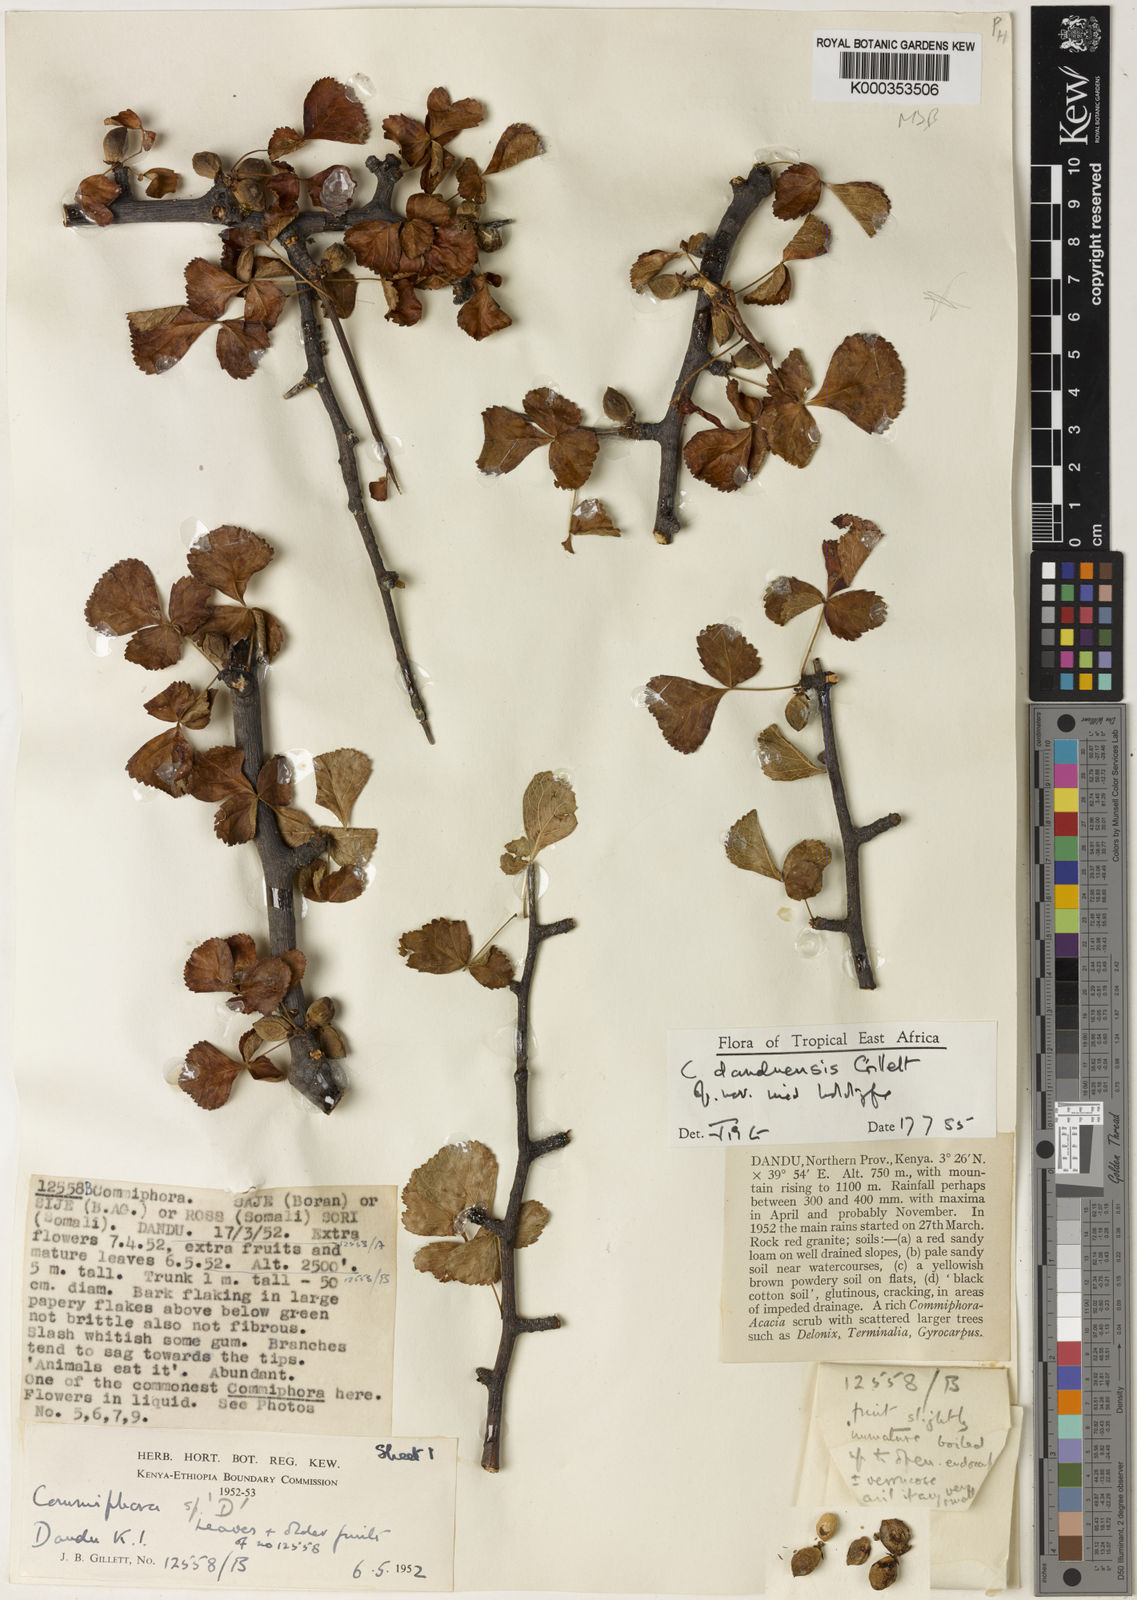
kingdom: Plantae
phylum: Tracheophyta
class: Magnoliopsida
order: Sapindales
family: Burseraceae
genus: Commiphora
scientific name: Commiphora samharensis
